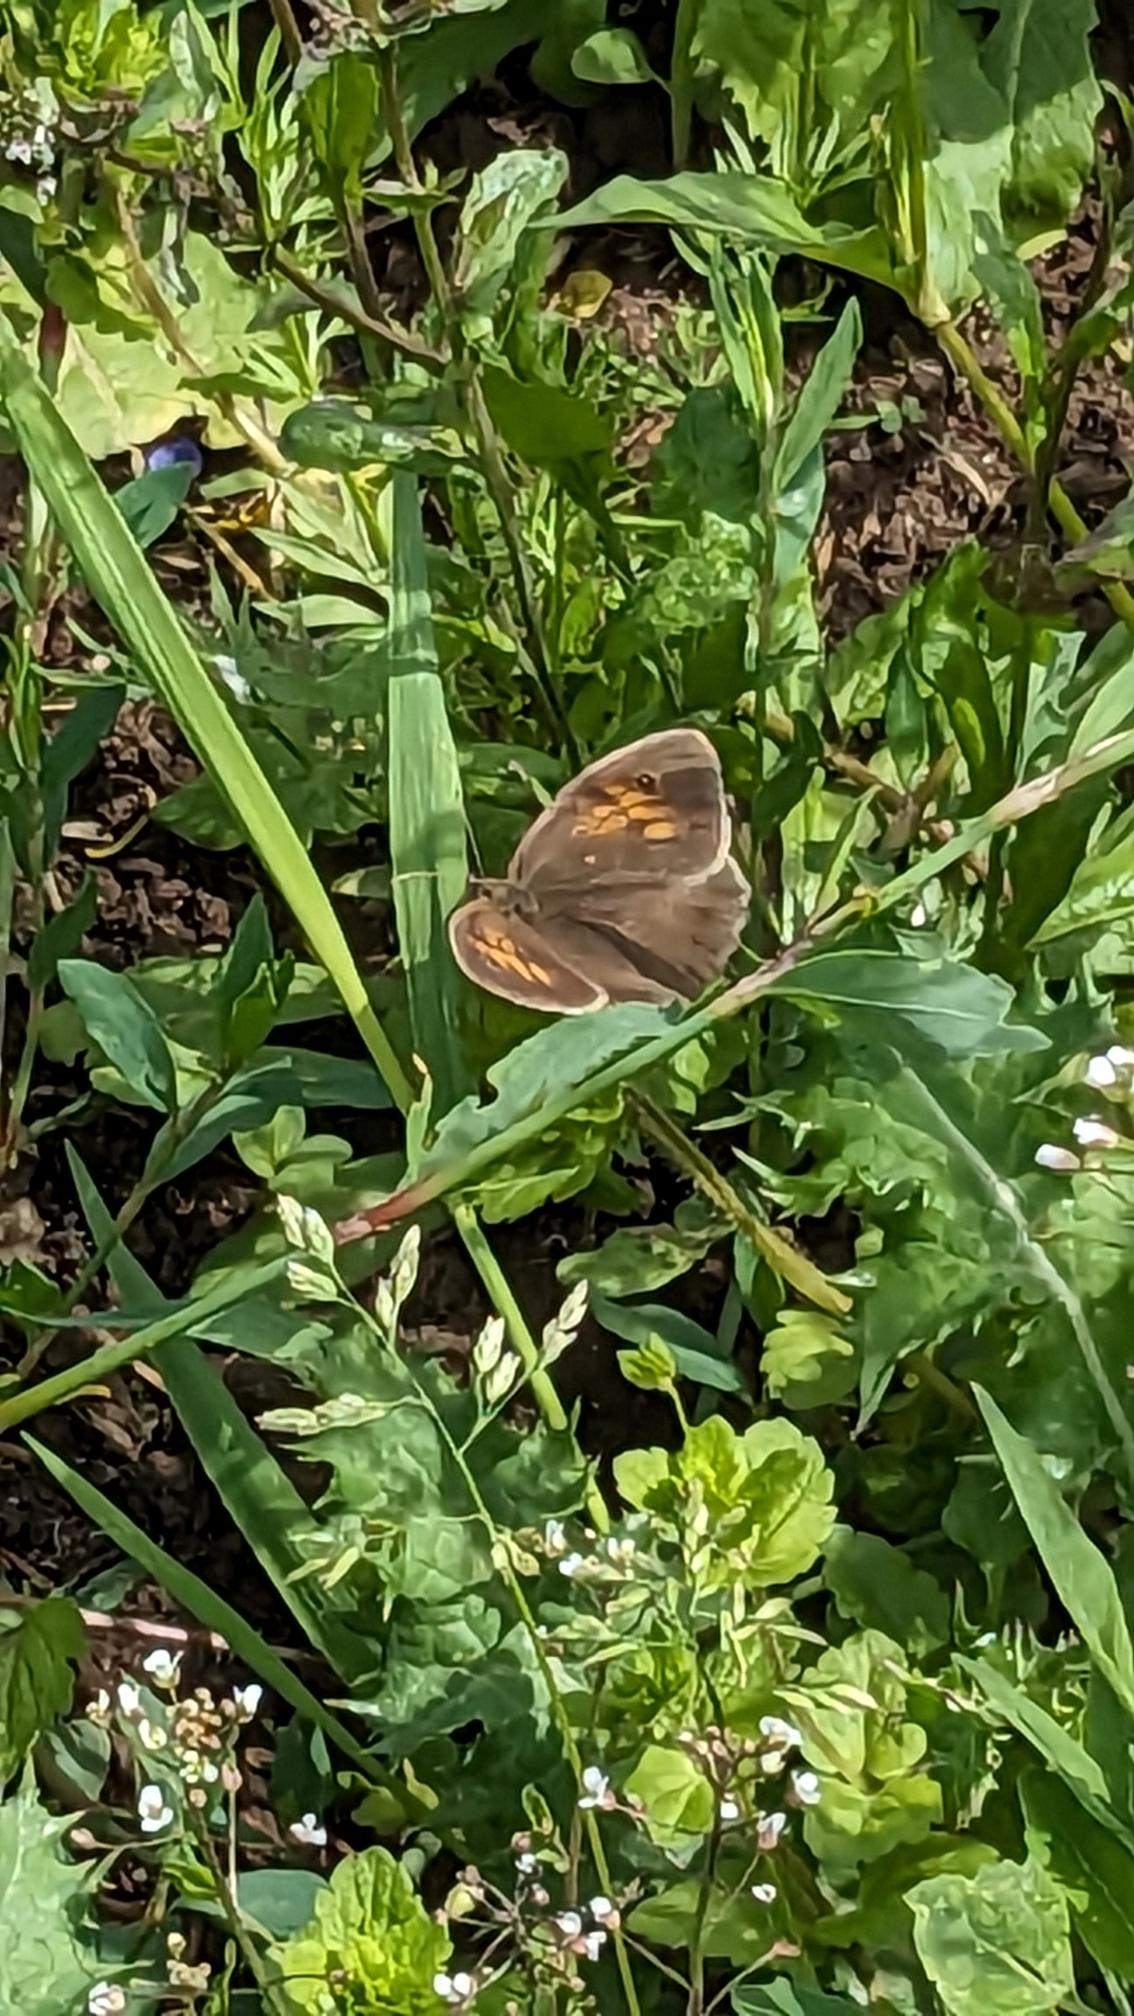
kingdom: Animalia
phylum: Arthropoda
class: Insecta
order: Lepidoptera
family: Nymphalidae
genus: Maniola
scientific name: Maniola jurtina
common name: Græsrandøje
